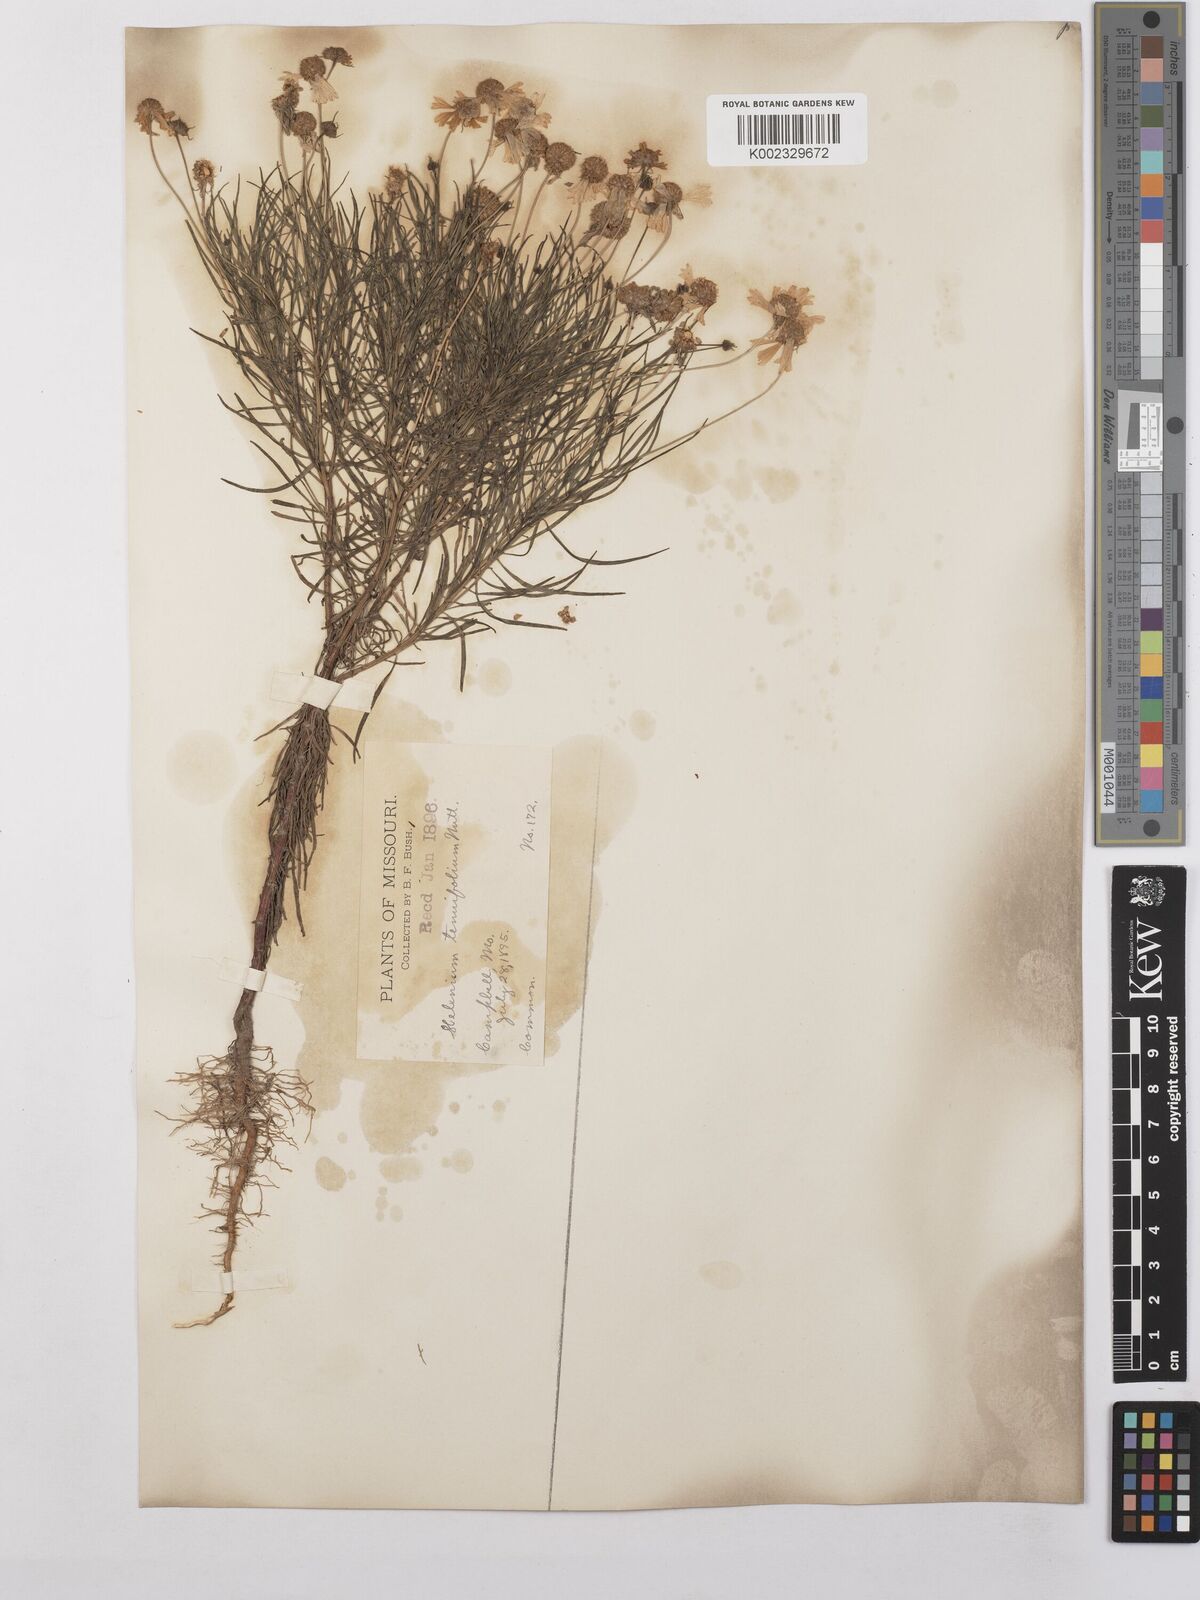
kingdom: Plantae
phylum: Tracheophyta
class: Magnoliopsida
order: Asterales
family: Asteraceae
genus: Helenium
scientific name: Helenium amarum
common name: Bitter sneezeweed
